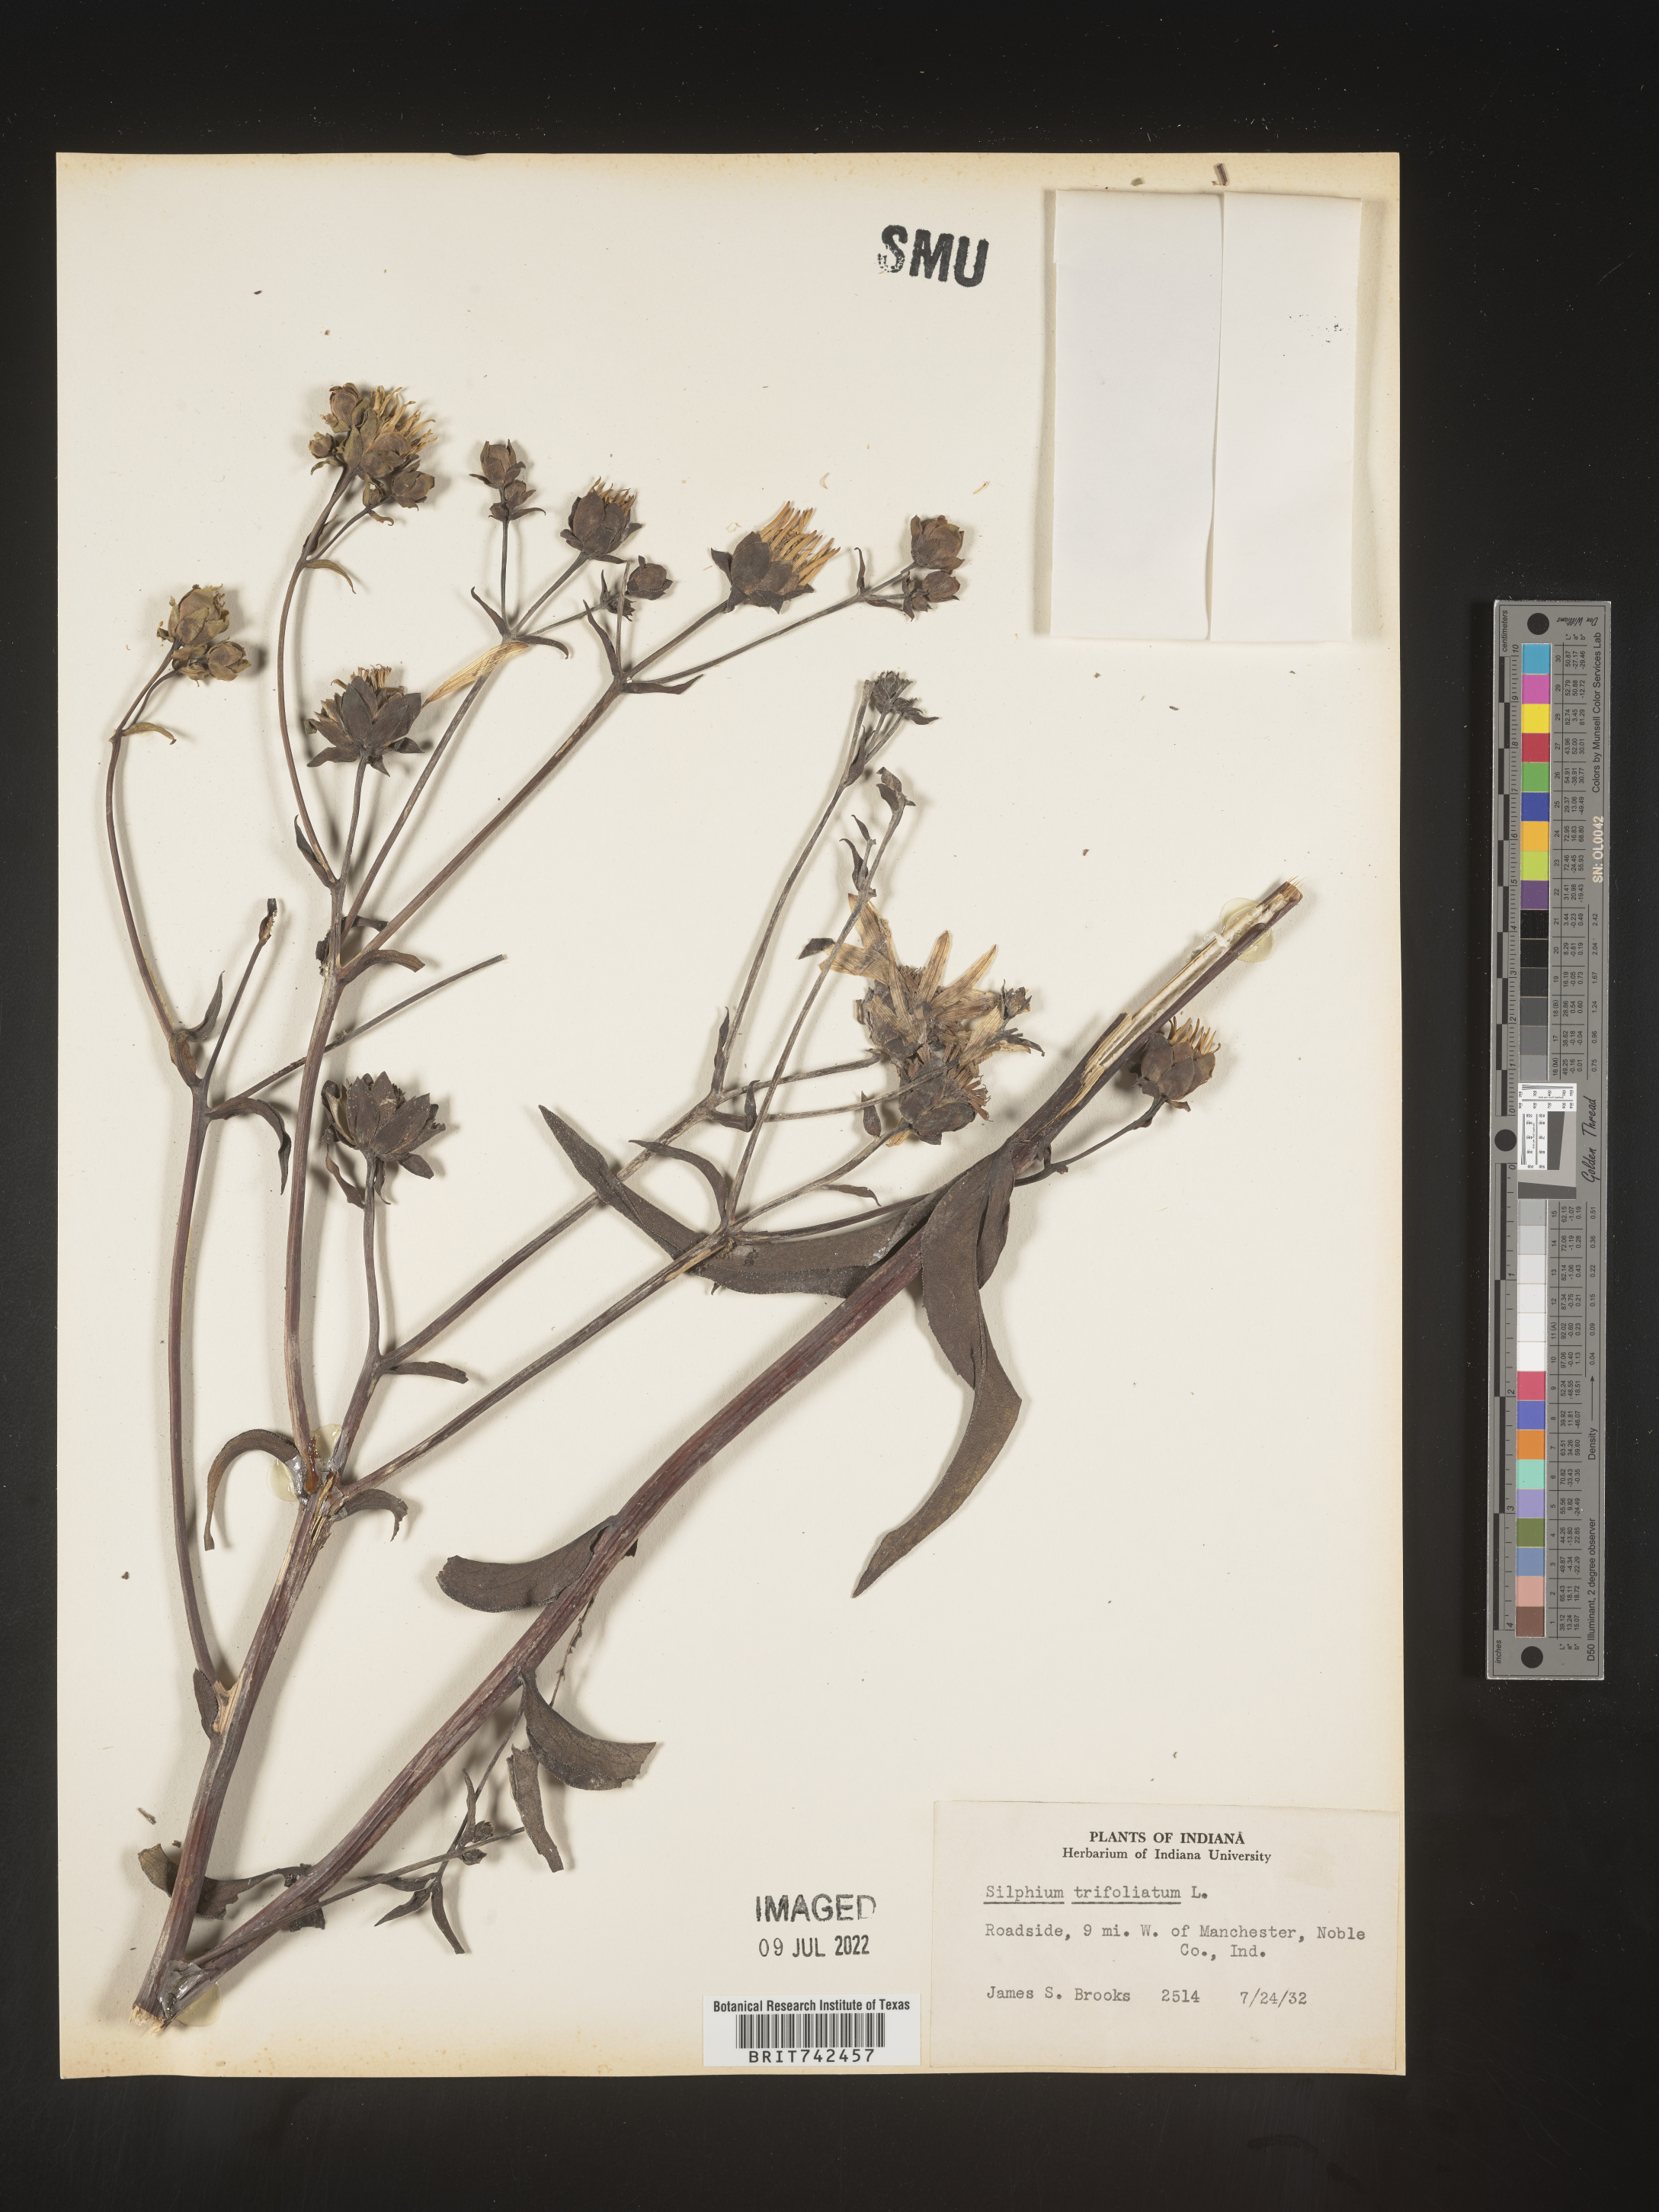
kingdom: Plantae
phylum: Tracheophyta
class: Magnoliopsida
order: Asterales
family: Asteraceae
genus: Silphium
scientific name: Silphium asteriscus
